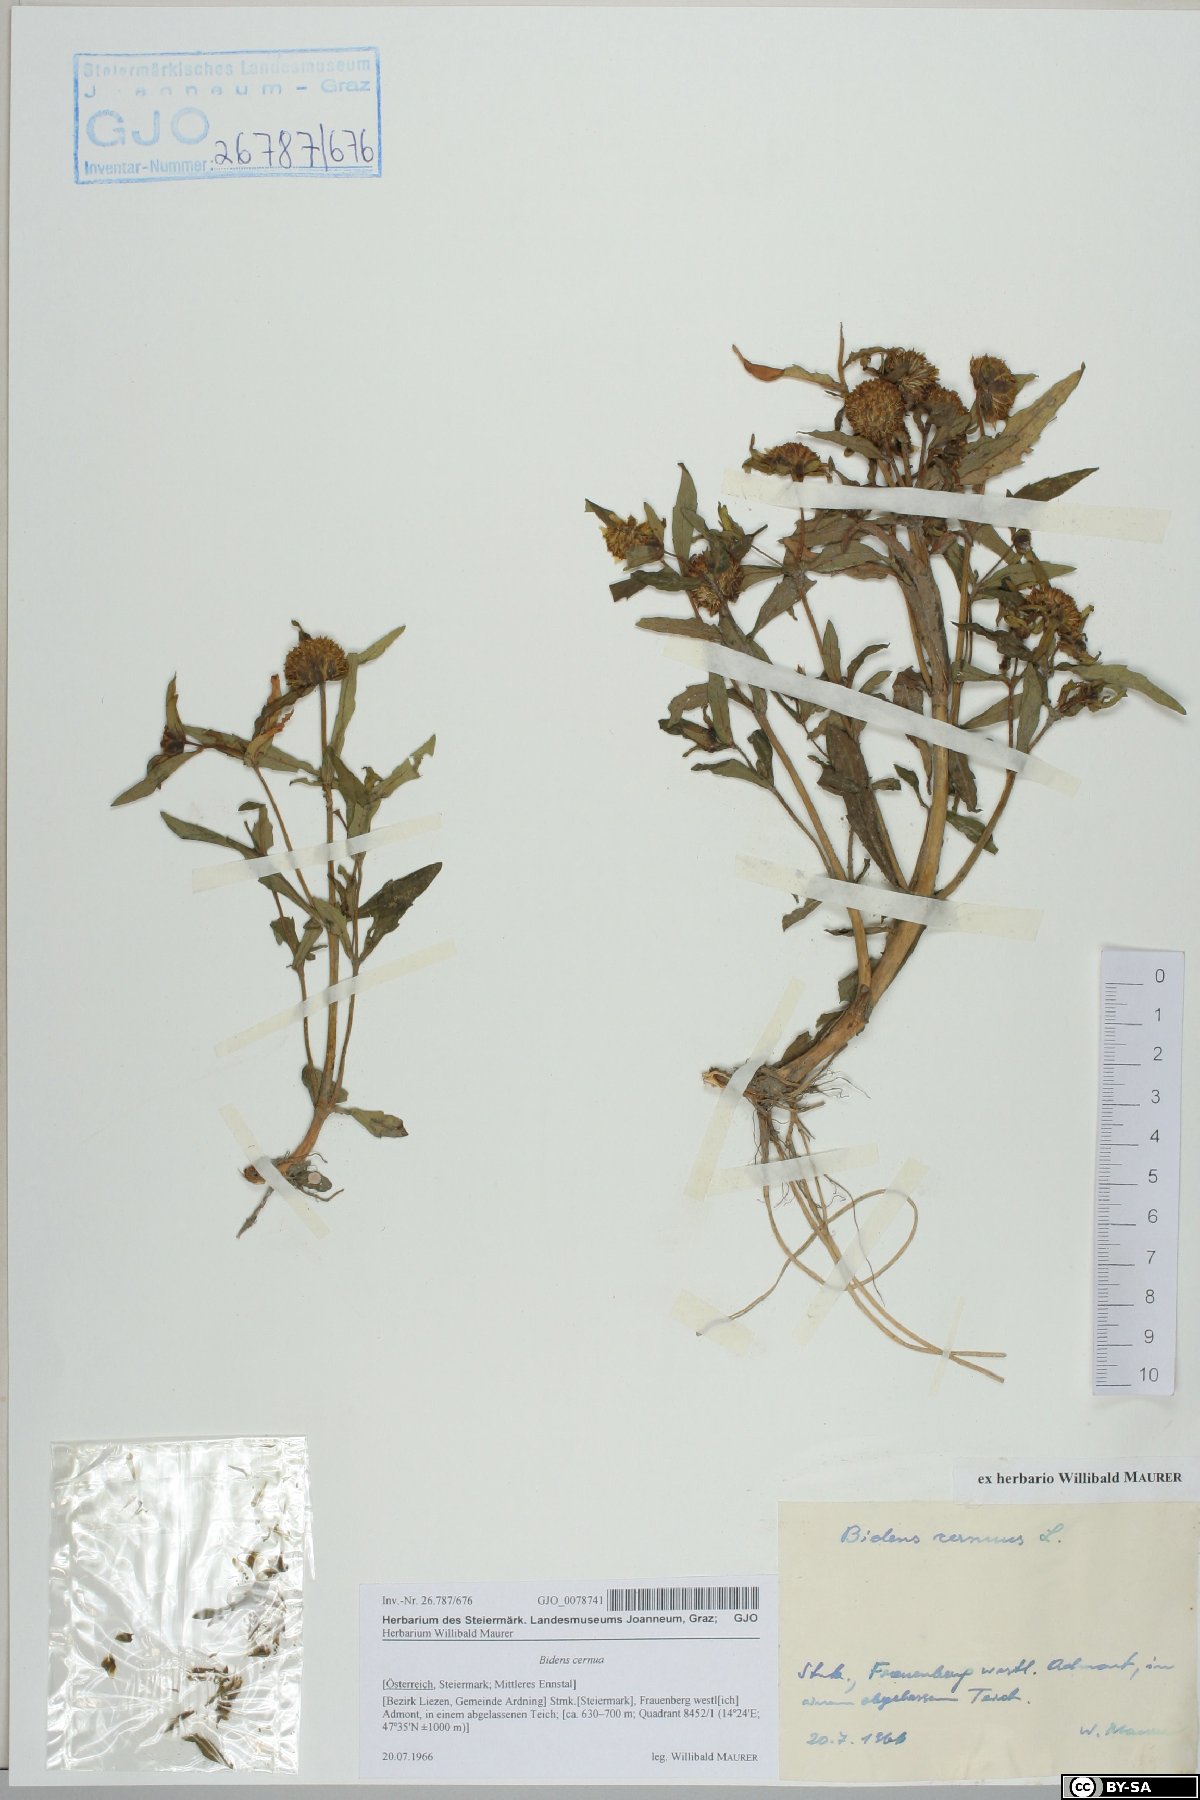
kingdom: Plantae
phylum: Tracheophyta
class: Magnoliopsida
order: Asterales
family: Asteraceae
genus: Bidens
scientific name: Bidens cernua
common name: Nodding bur-marigold
